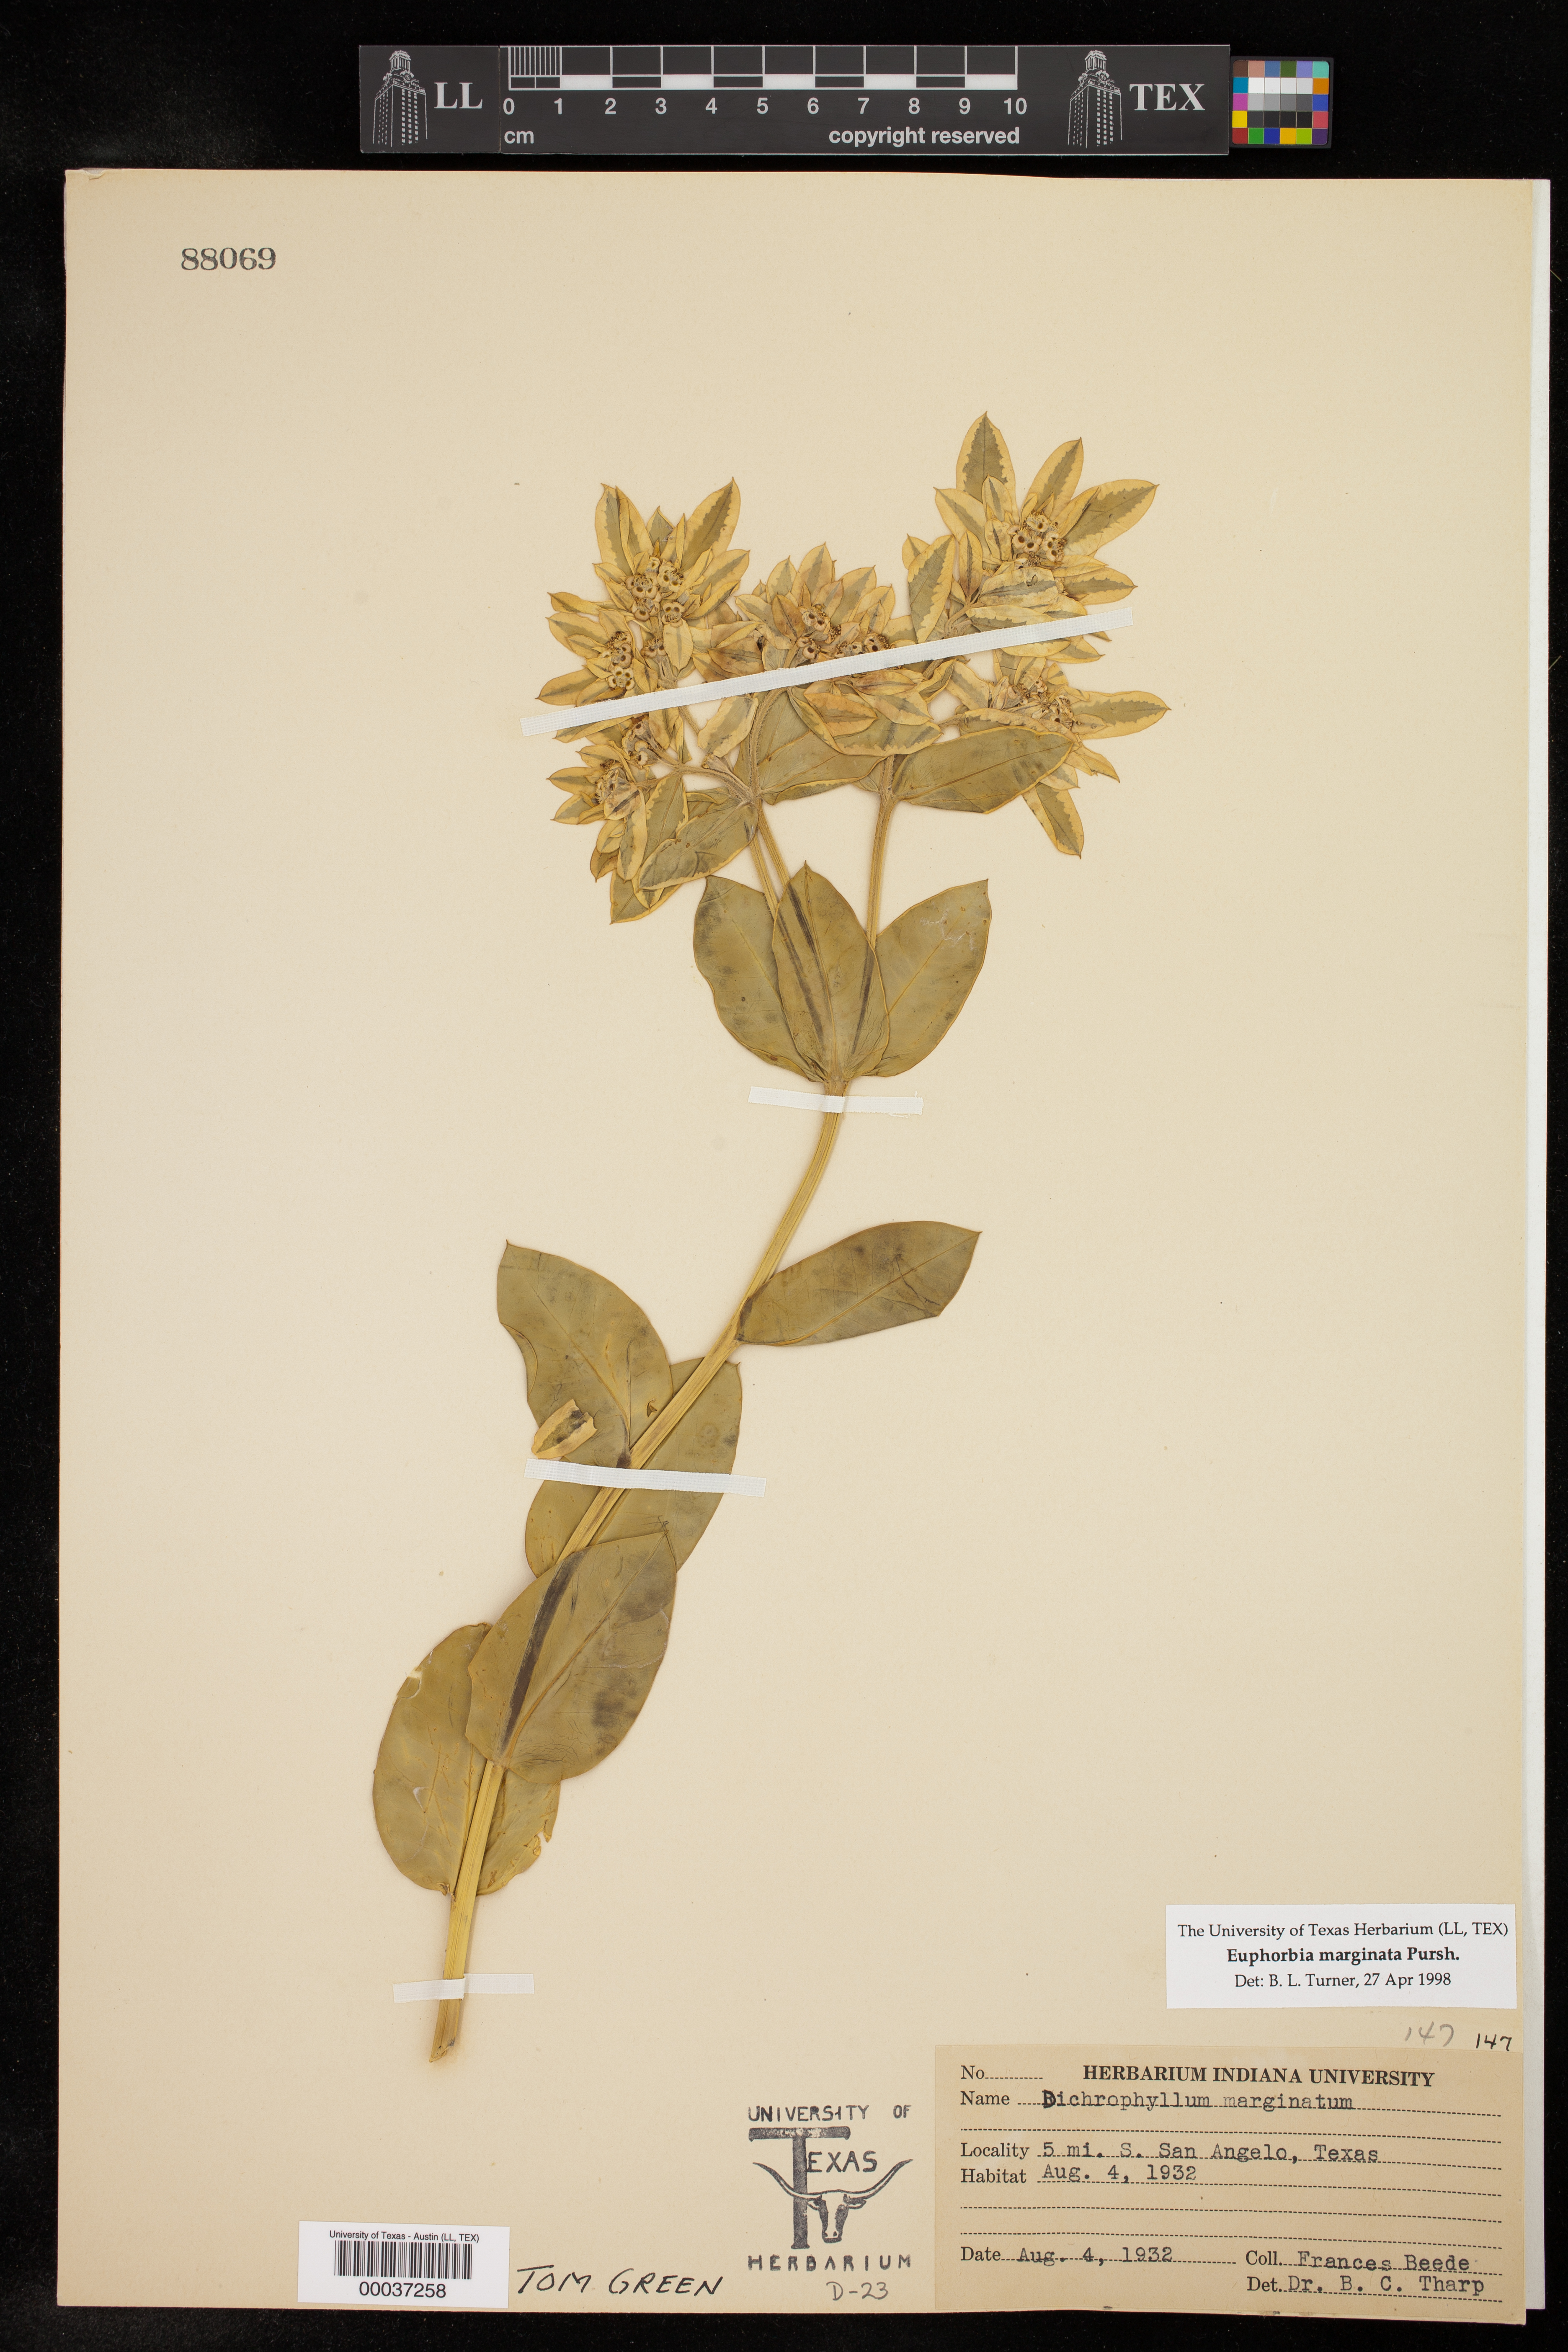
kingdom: Plantae
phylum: Tracheophyta
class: Magnoliopsida
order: Malpighiales
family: Euphorbiaceae
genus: Euphorbia
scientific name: Euphorbia marginata
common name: Ghostweed
